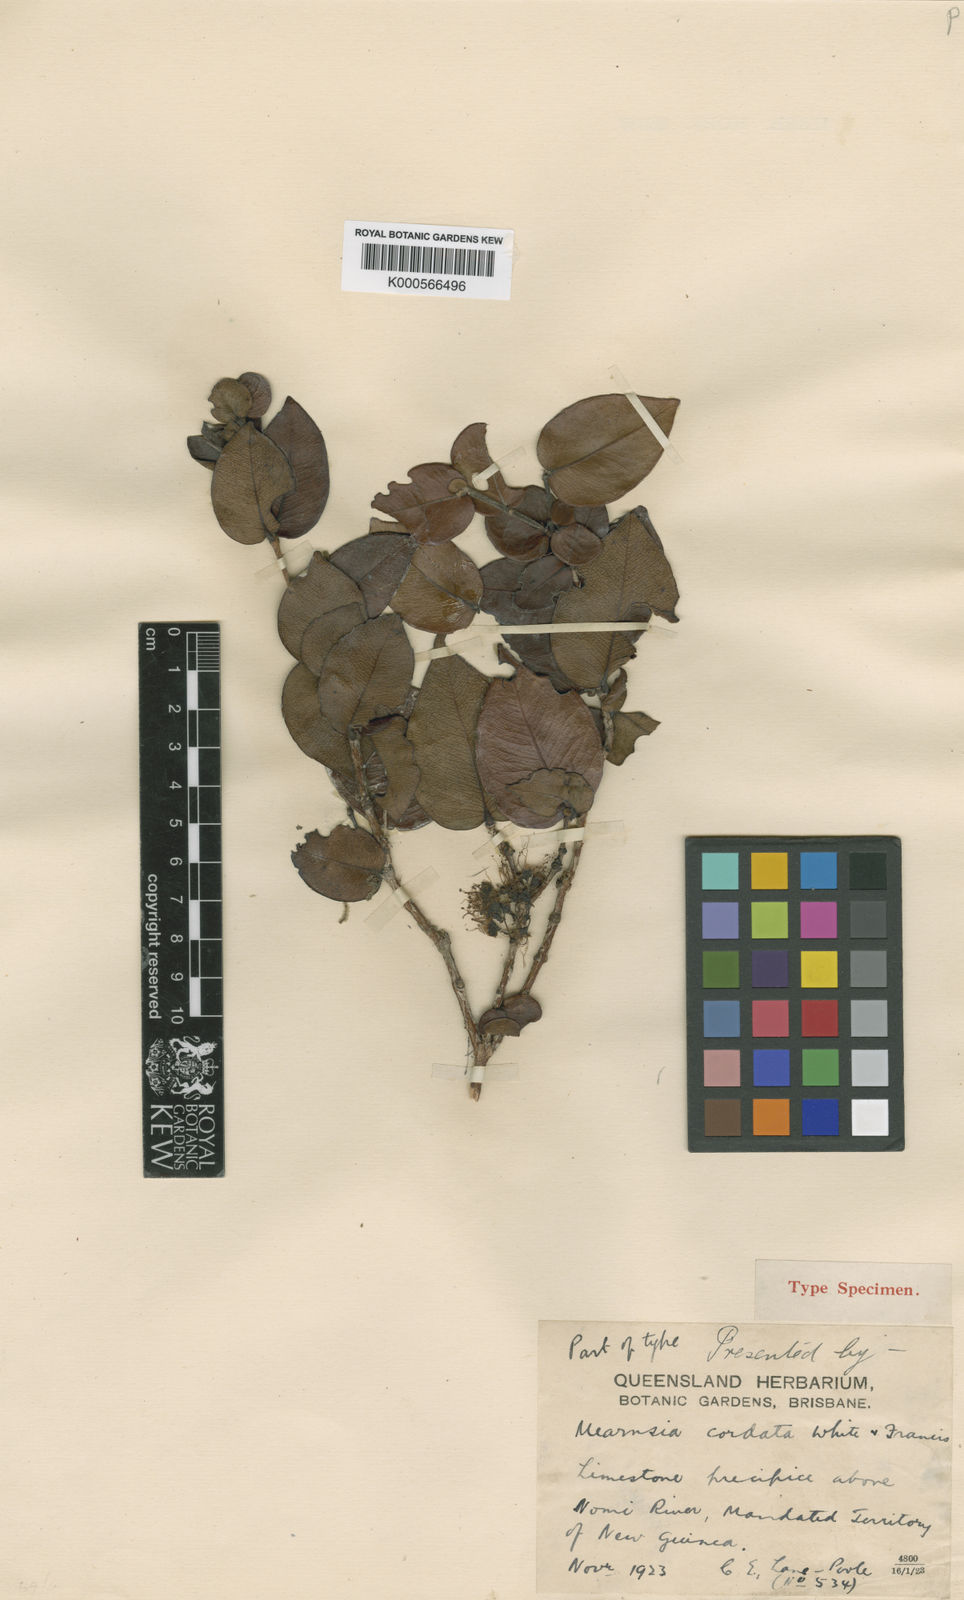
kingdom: Plantae
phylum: Tracheophyta
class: Magnoliopsida
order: Myrtales
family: Myrtaceae
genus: Metrosideros
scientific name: Metrosideros cordata
